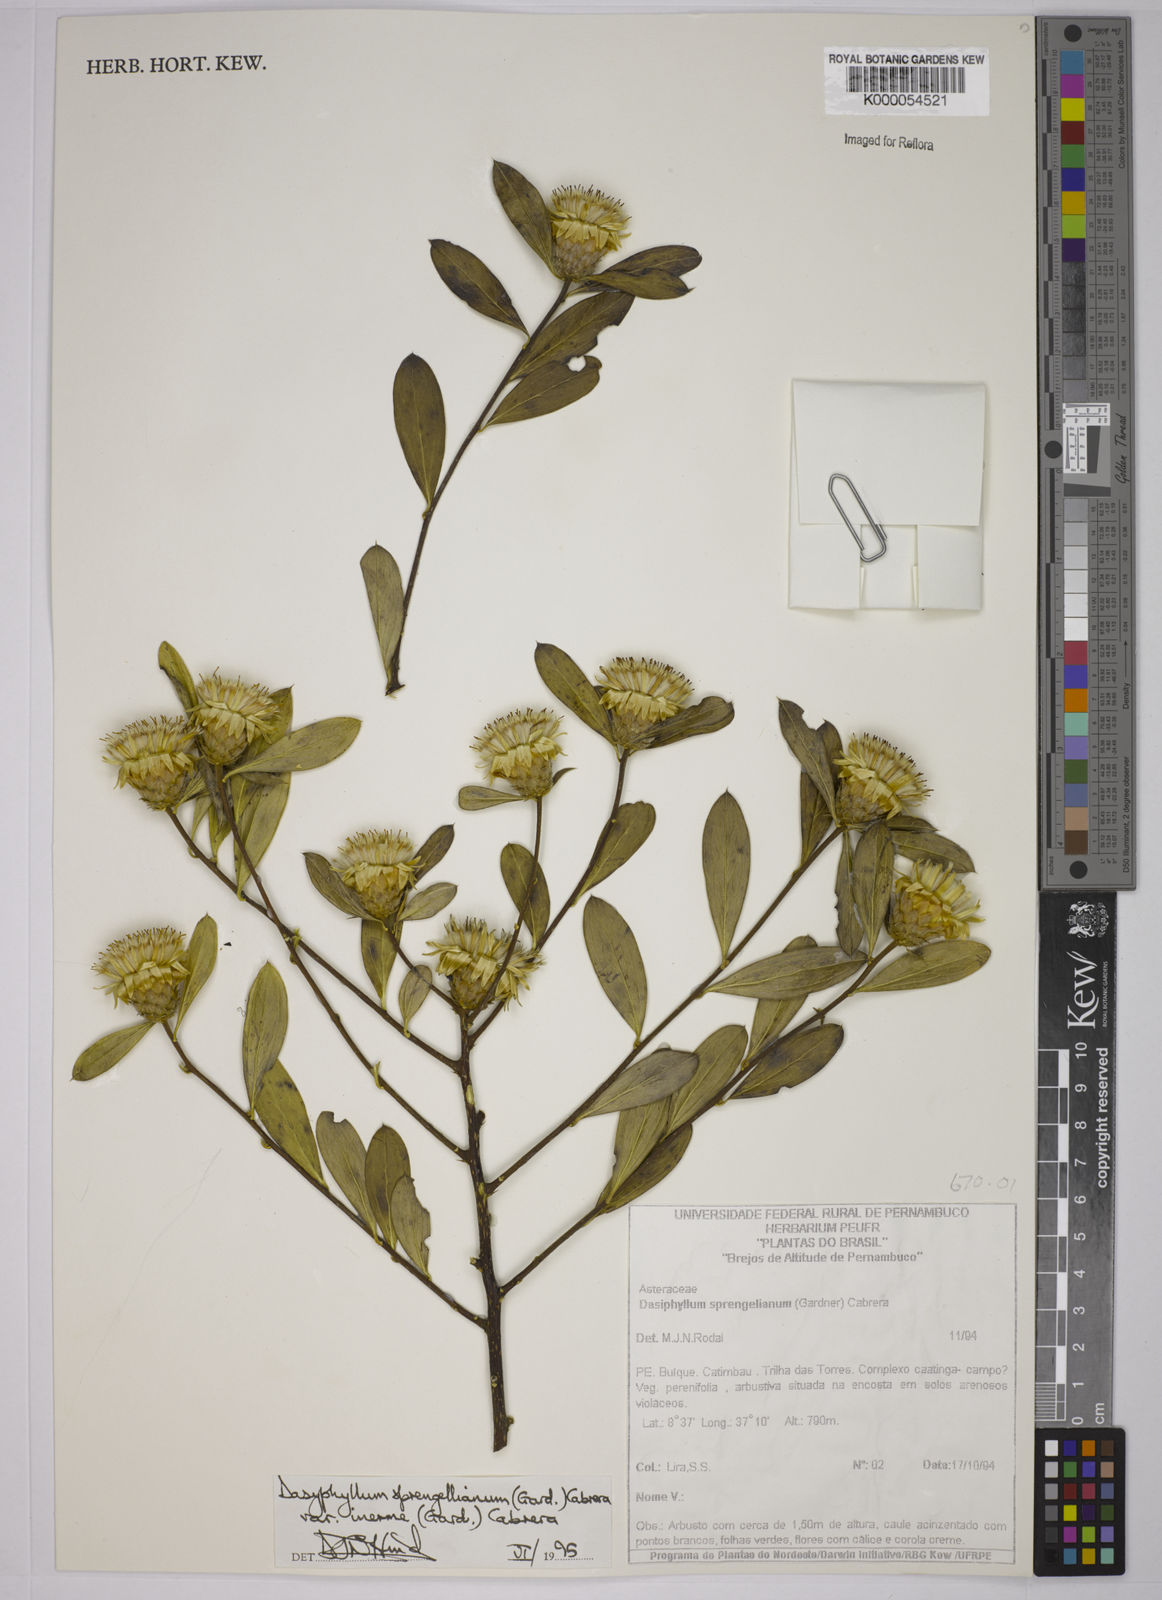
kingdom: Plantae
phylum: Tracheophyta
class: Magnoliopsida
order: Asterales
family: Asteraceae
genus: Dasyphyllum
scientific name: Dasyphyllum sprengelianum
